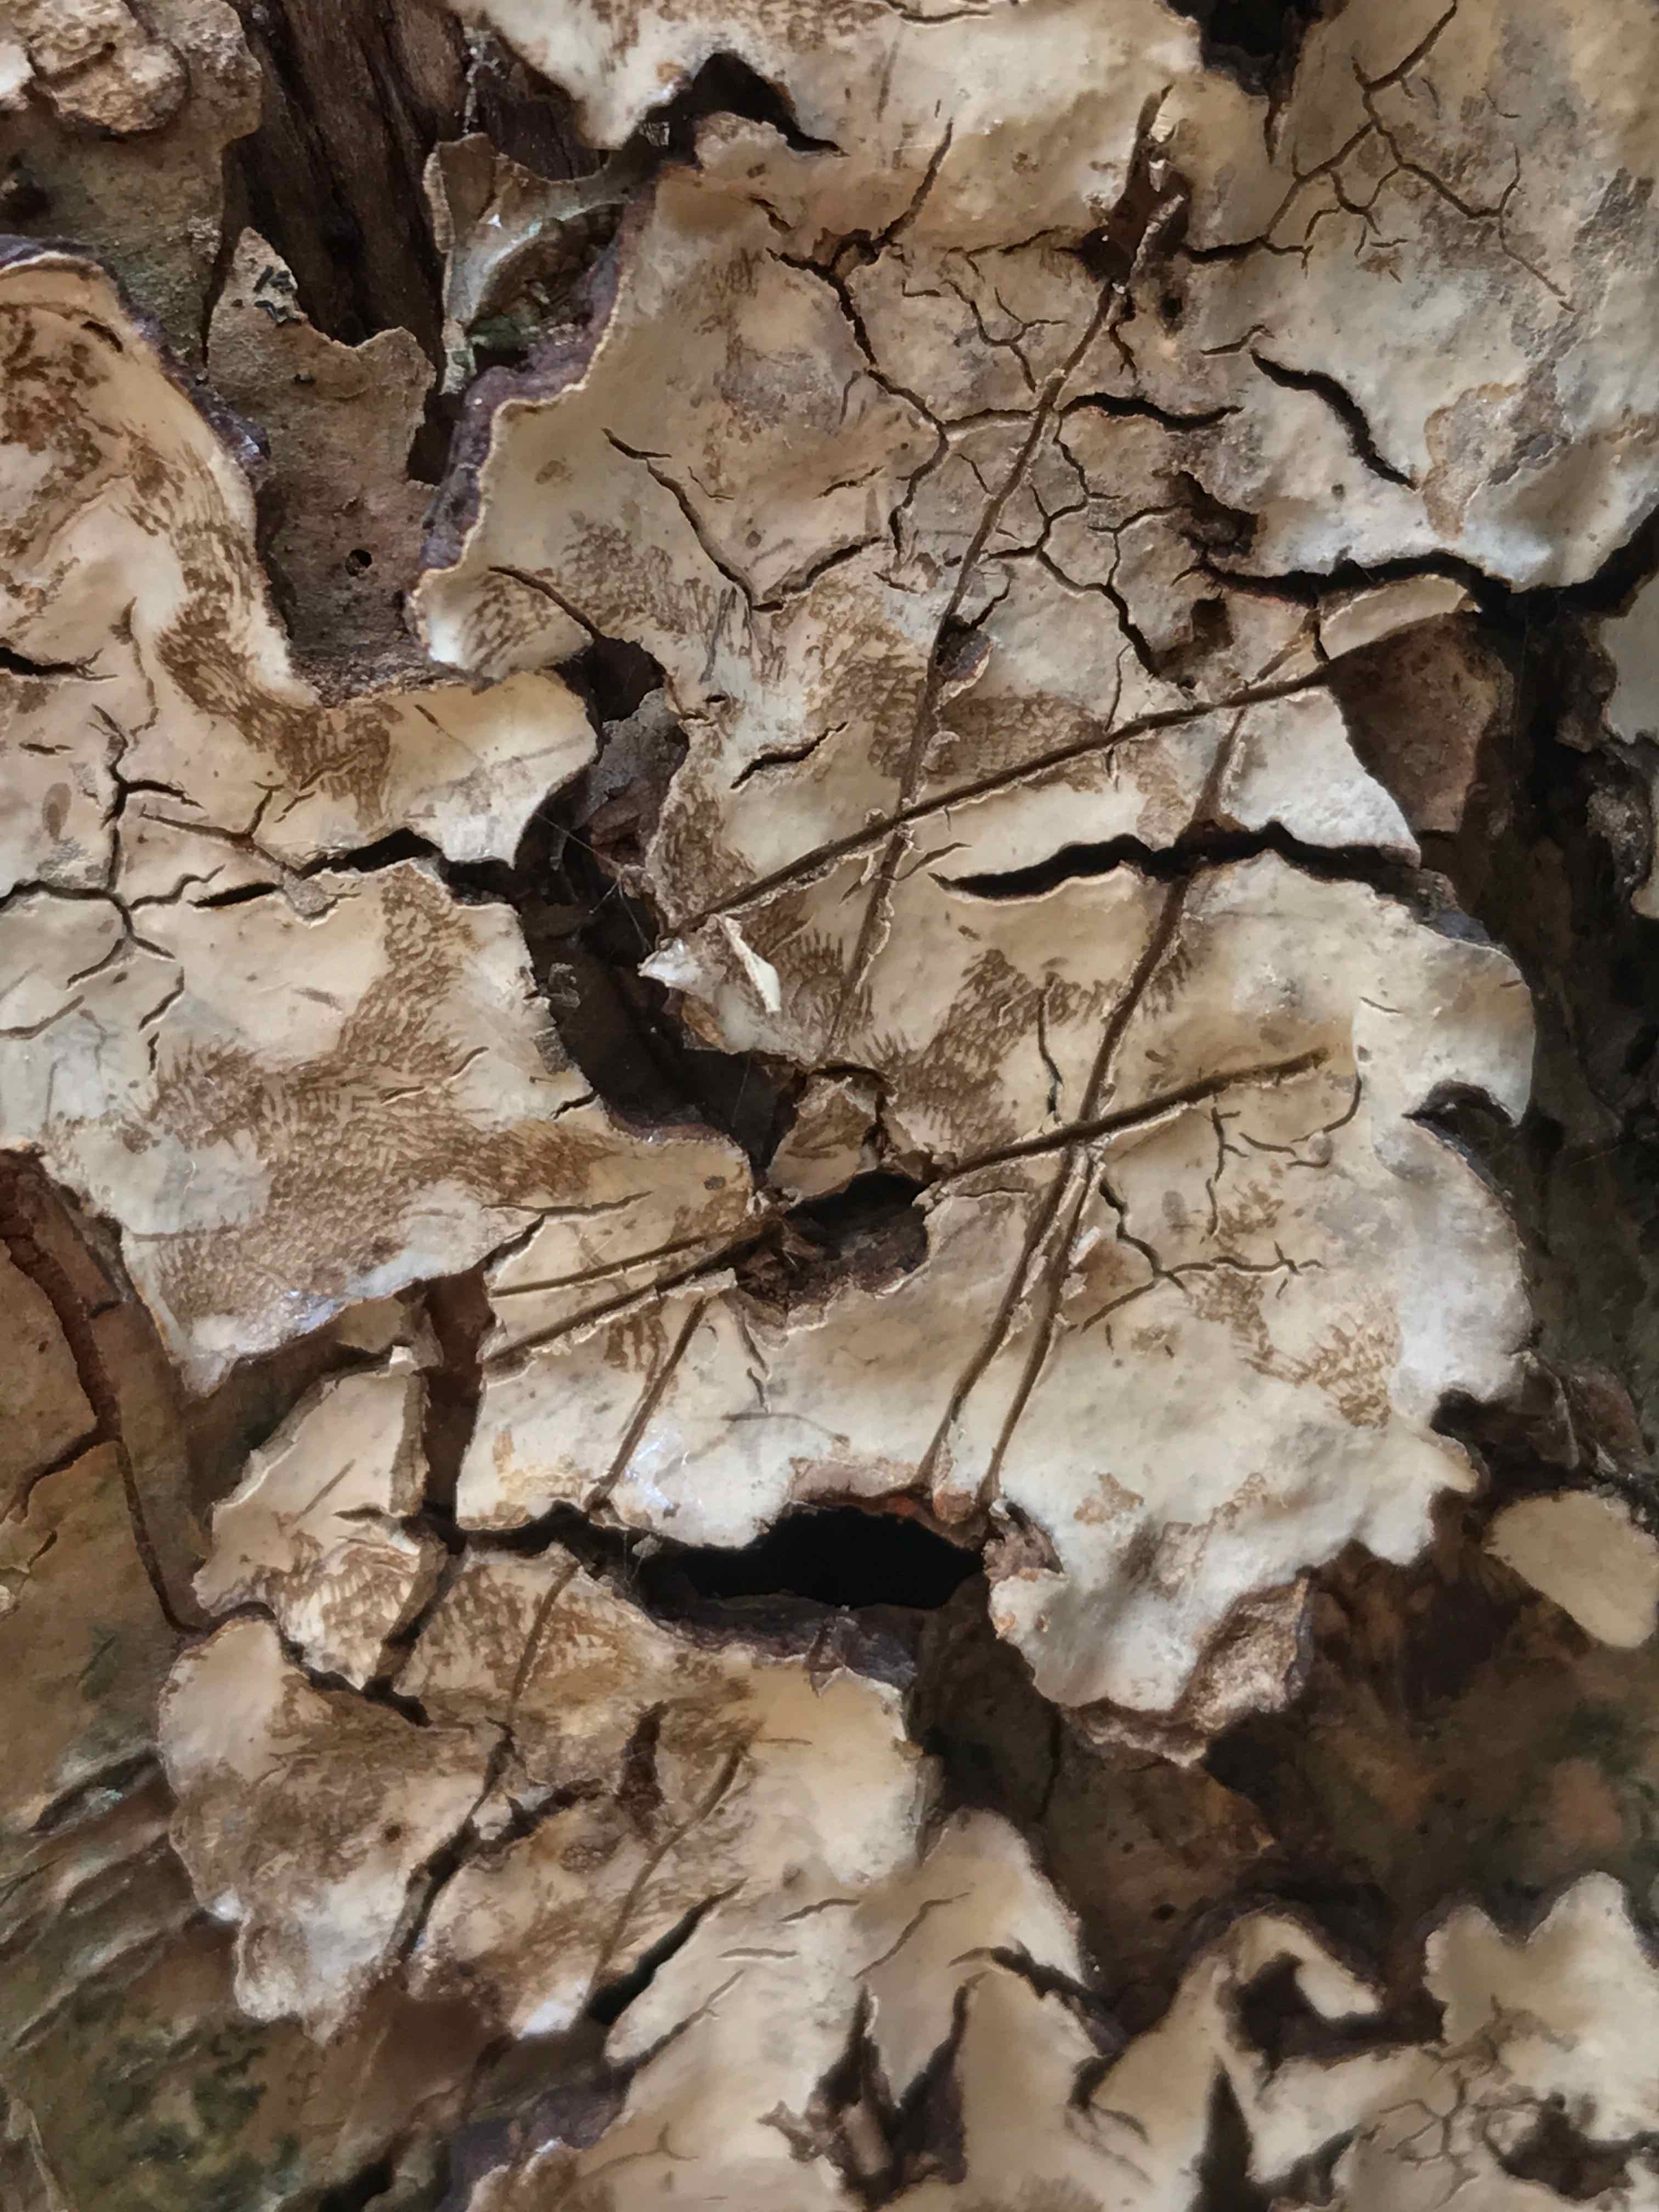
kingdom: Fungi
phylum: Basidiomycota
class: Agaricomycetes
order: Russulales
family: Stereaceae
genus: Stereum
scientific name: Stereum rugosum
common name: rynket lædersvamp
